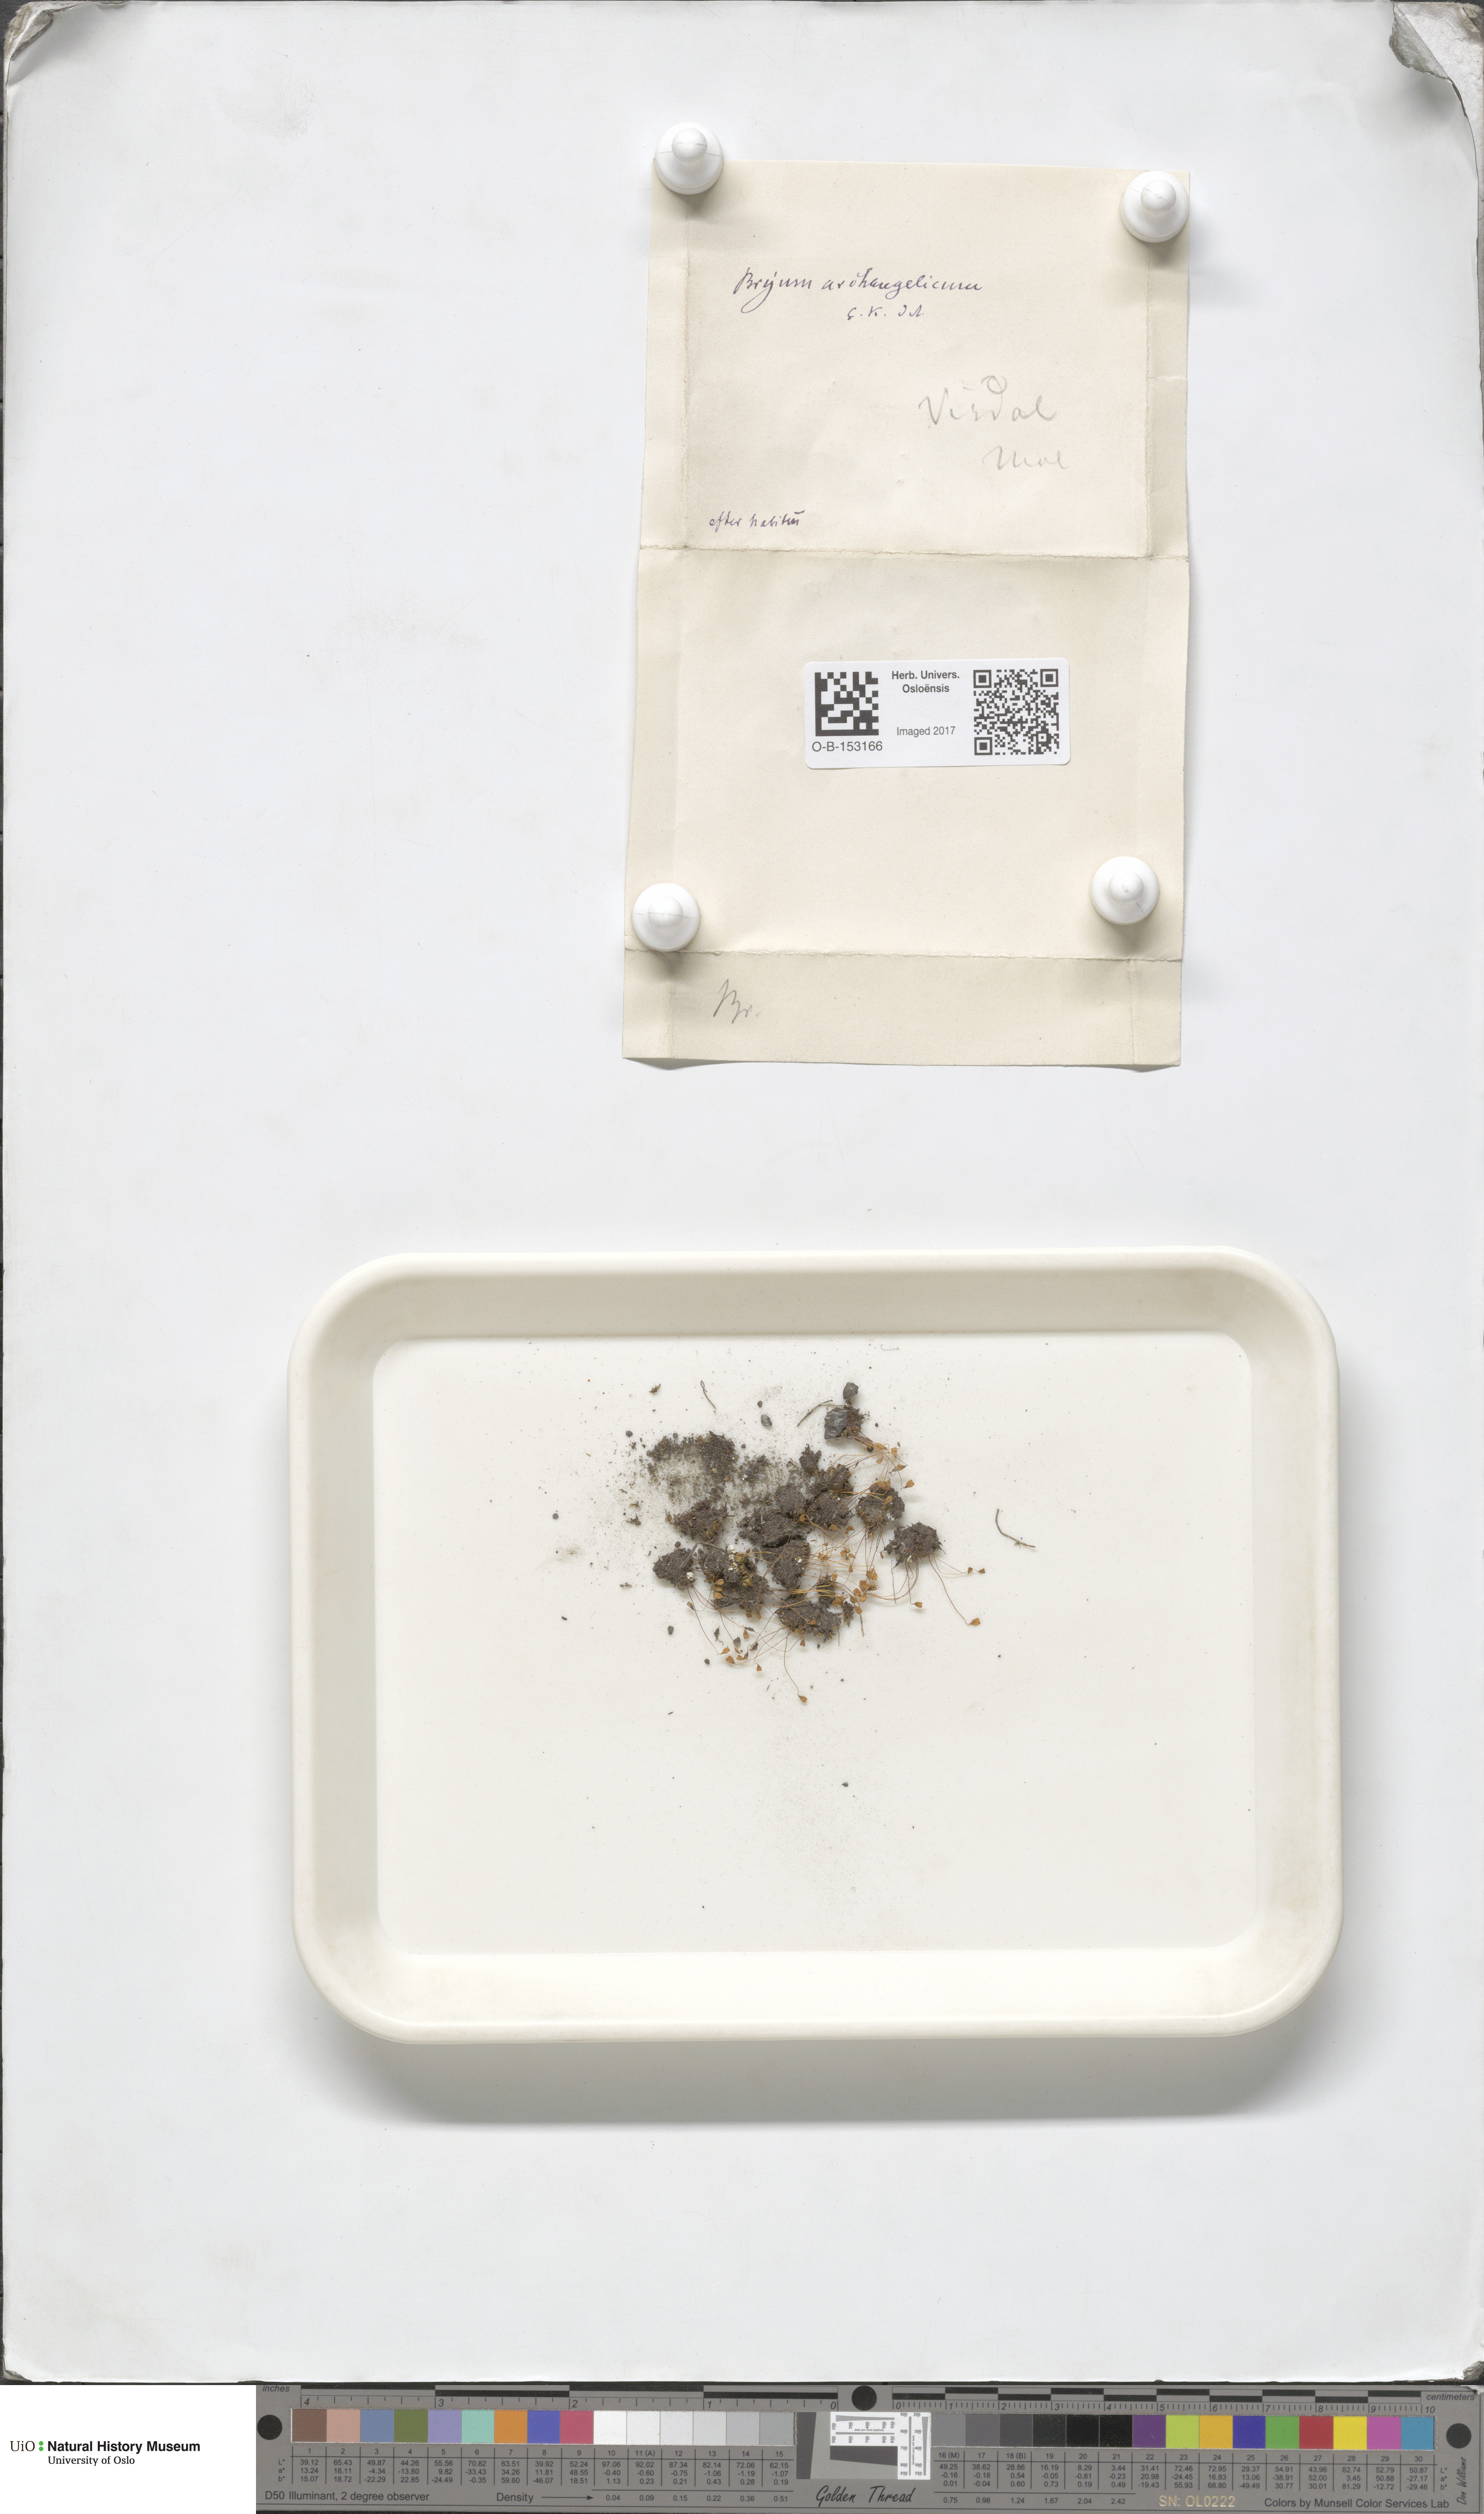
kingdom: Plantae
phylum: Bryophyta
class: Bryopsida
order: Bryales
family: Bryaceae
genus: Ptychostomum
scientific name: Ptychostomum inclinatum
